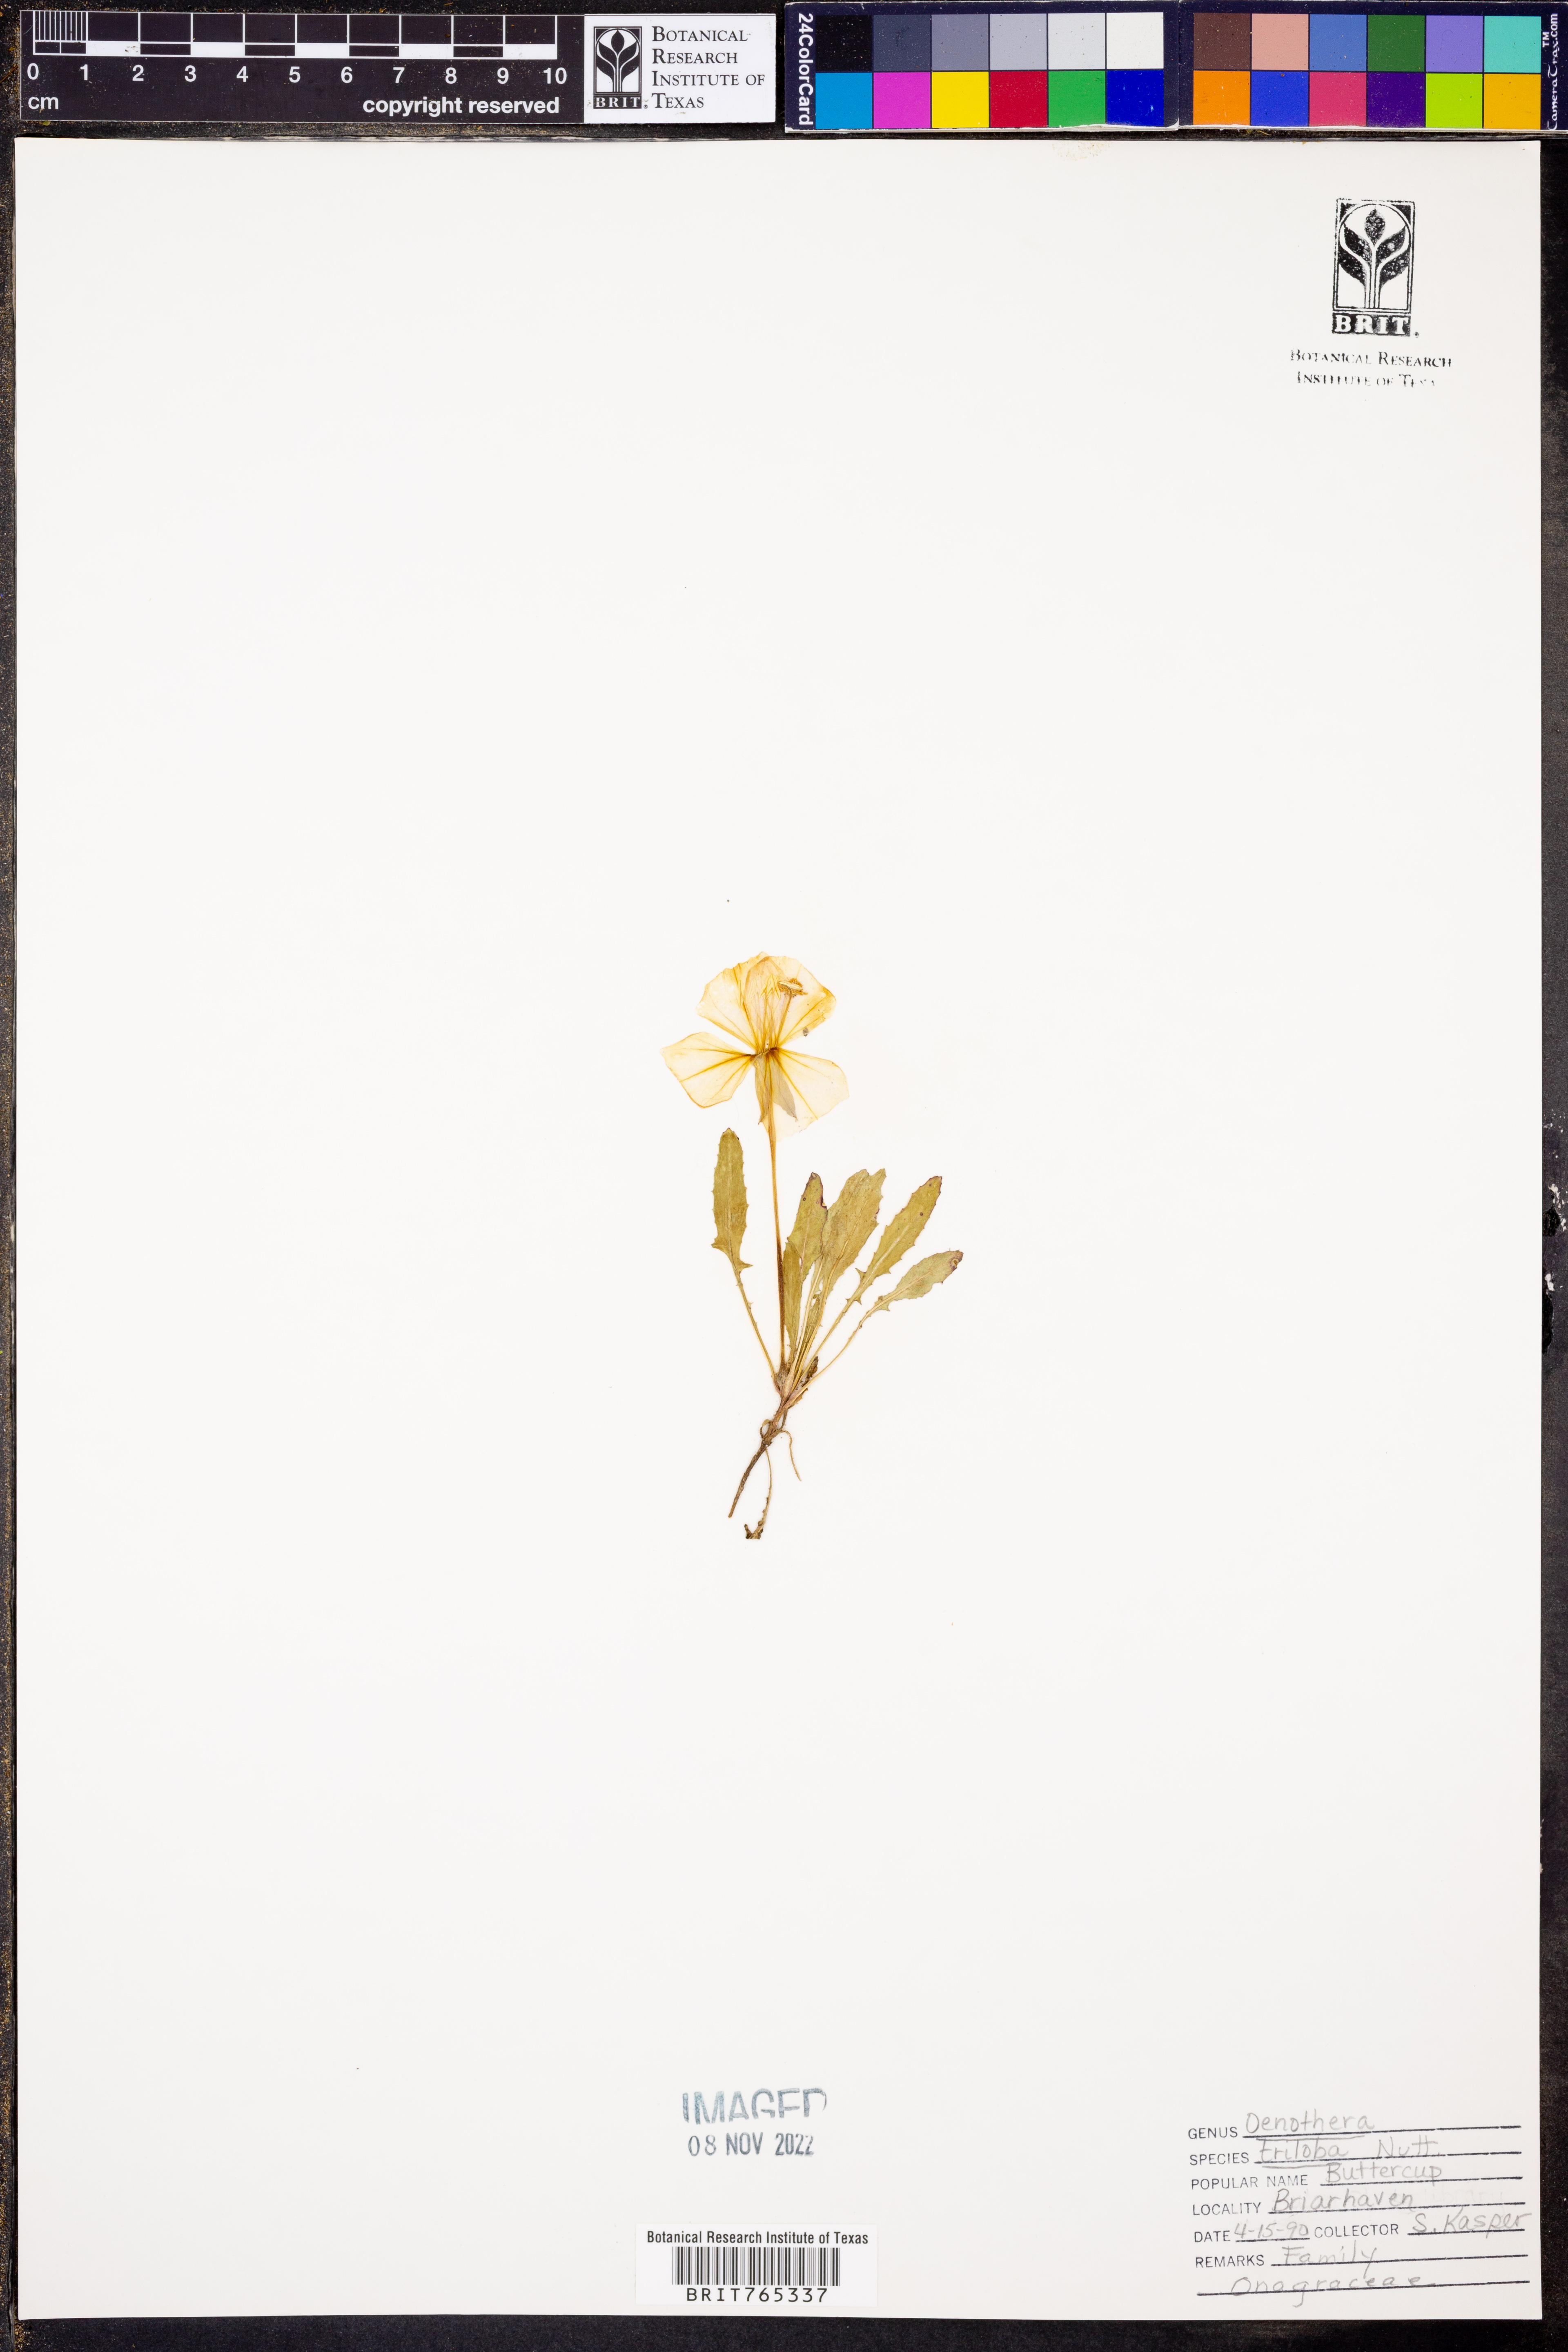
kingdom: Plantae
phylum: Tracheophyta
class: Magnoliopsida
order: Myrtales
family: Onagraceae
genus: Oenothera
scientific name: Oenothera triloba
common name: Sessile evening-primrose
